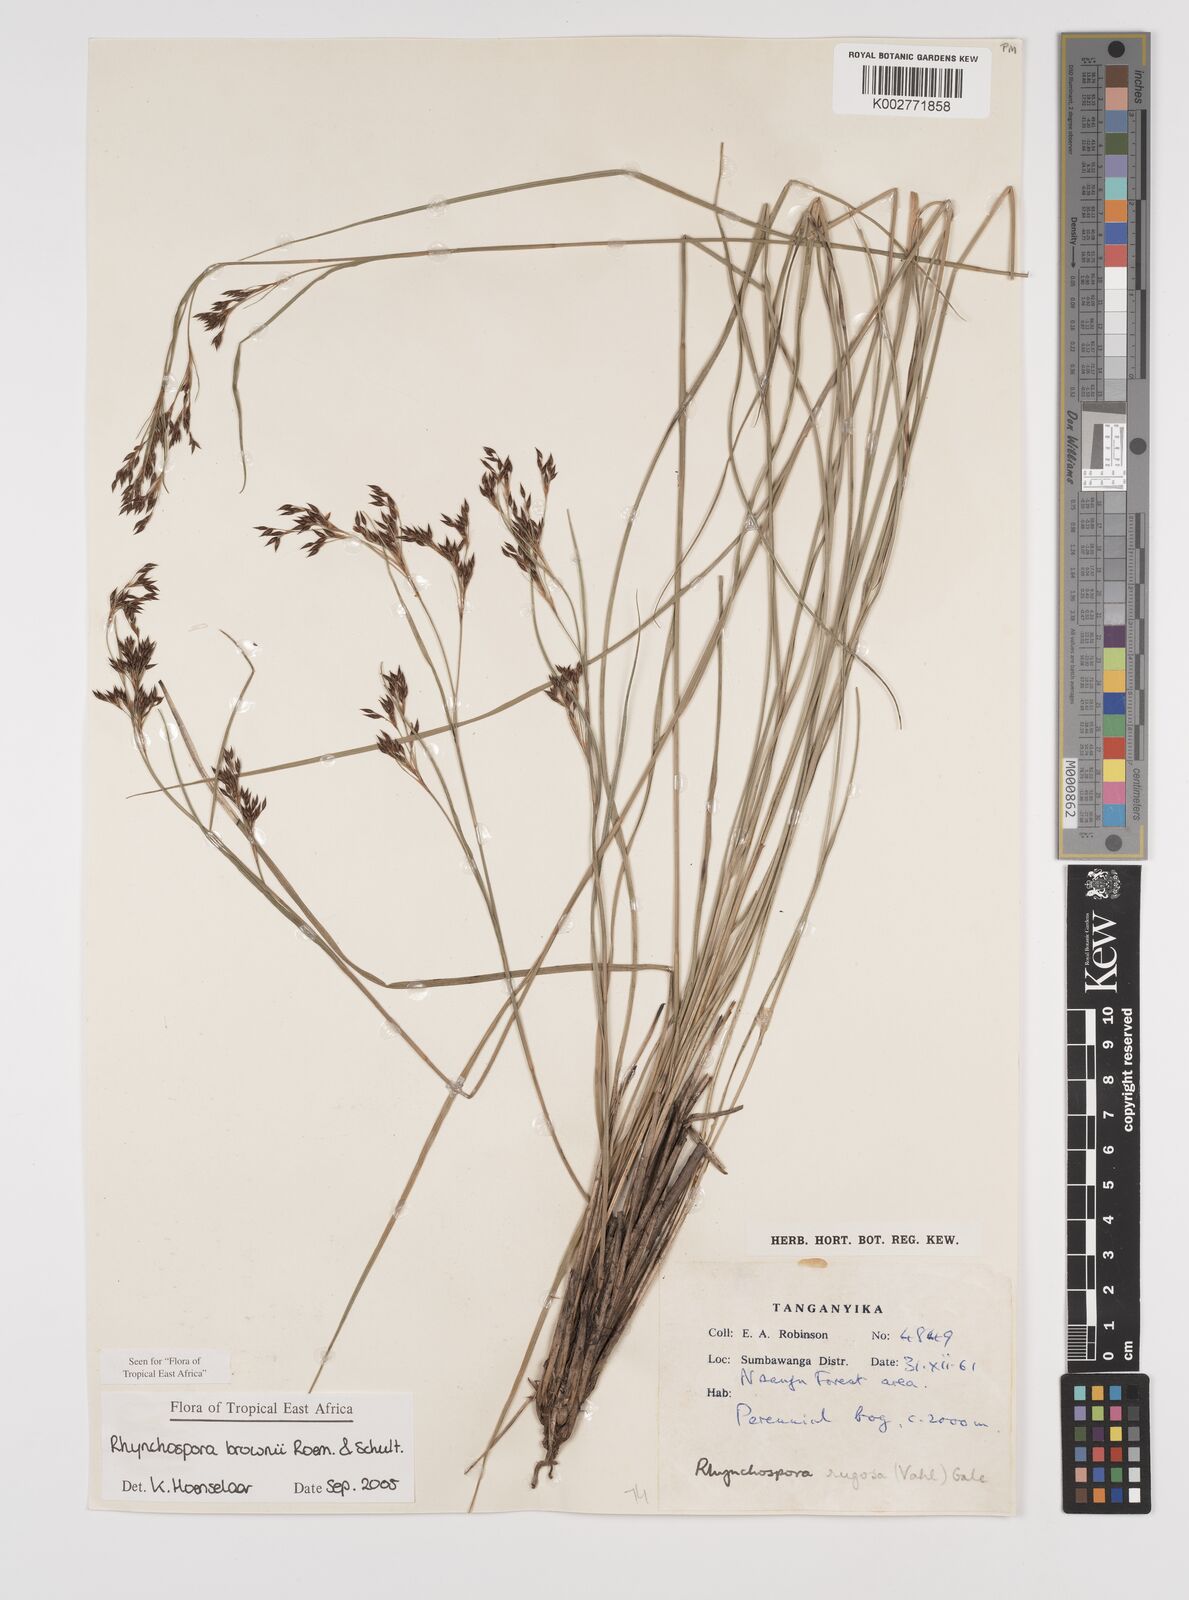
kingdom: Plantae
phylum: Tracheophyta
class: Liliopsida
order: Poales
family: Cyperaceae
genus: Rhynchospora
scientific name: Rhynchospora brownii
